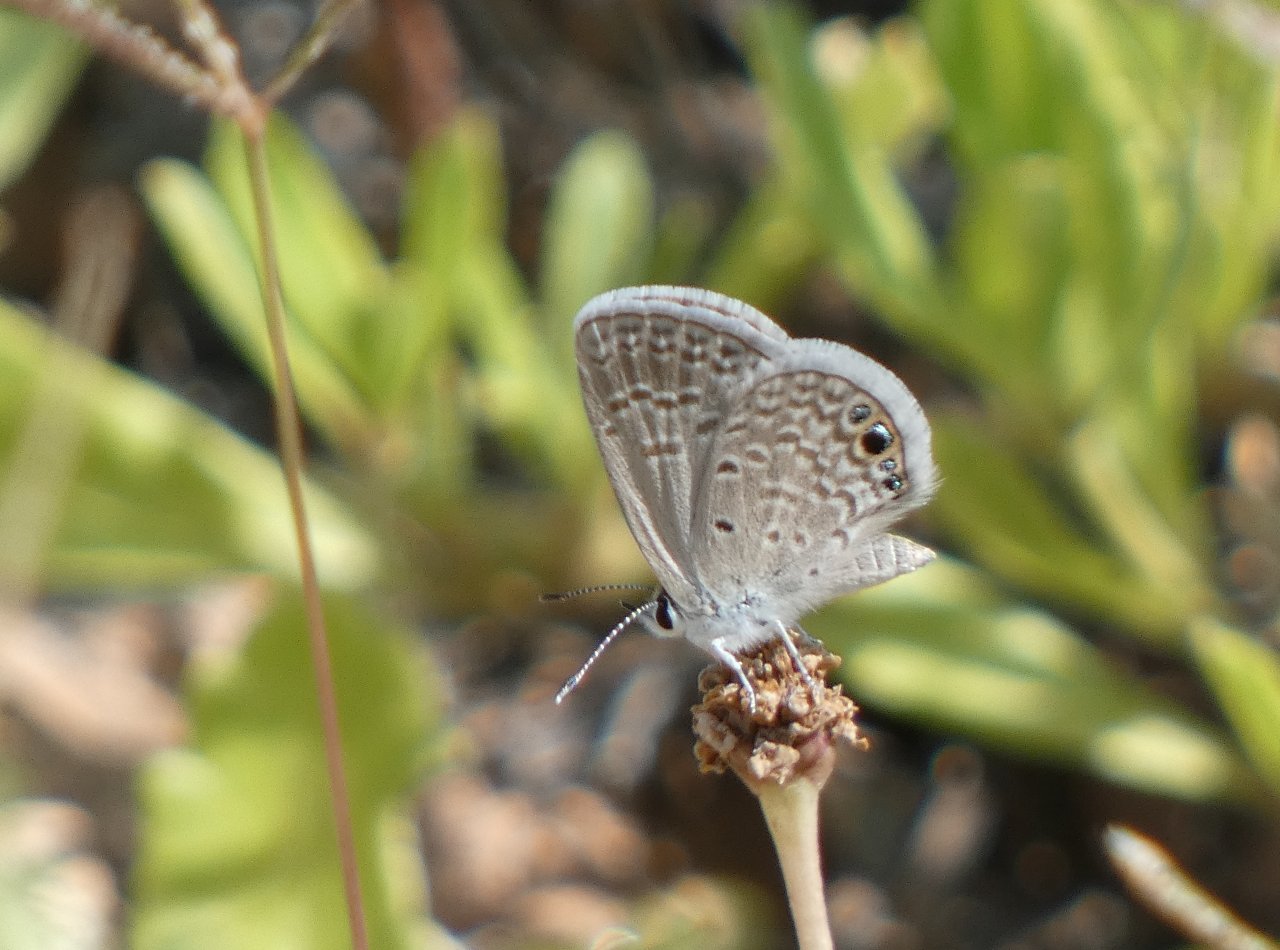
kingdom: Animalia
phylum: Arthropoda
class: Insecta
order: Lepidoptera
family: Lycaenidae
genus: Hemiargus
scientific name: Hemiargus ceraunus
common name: Ceraunus Blue
